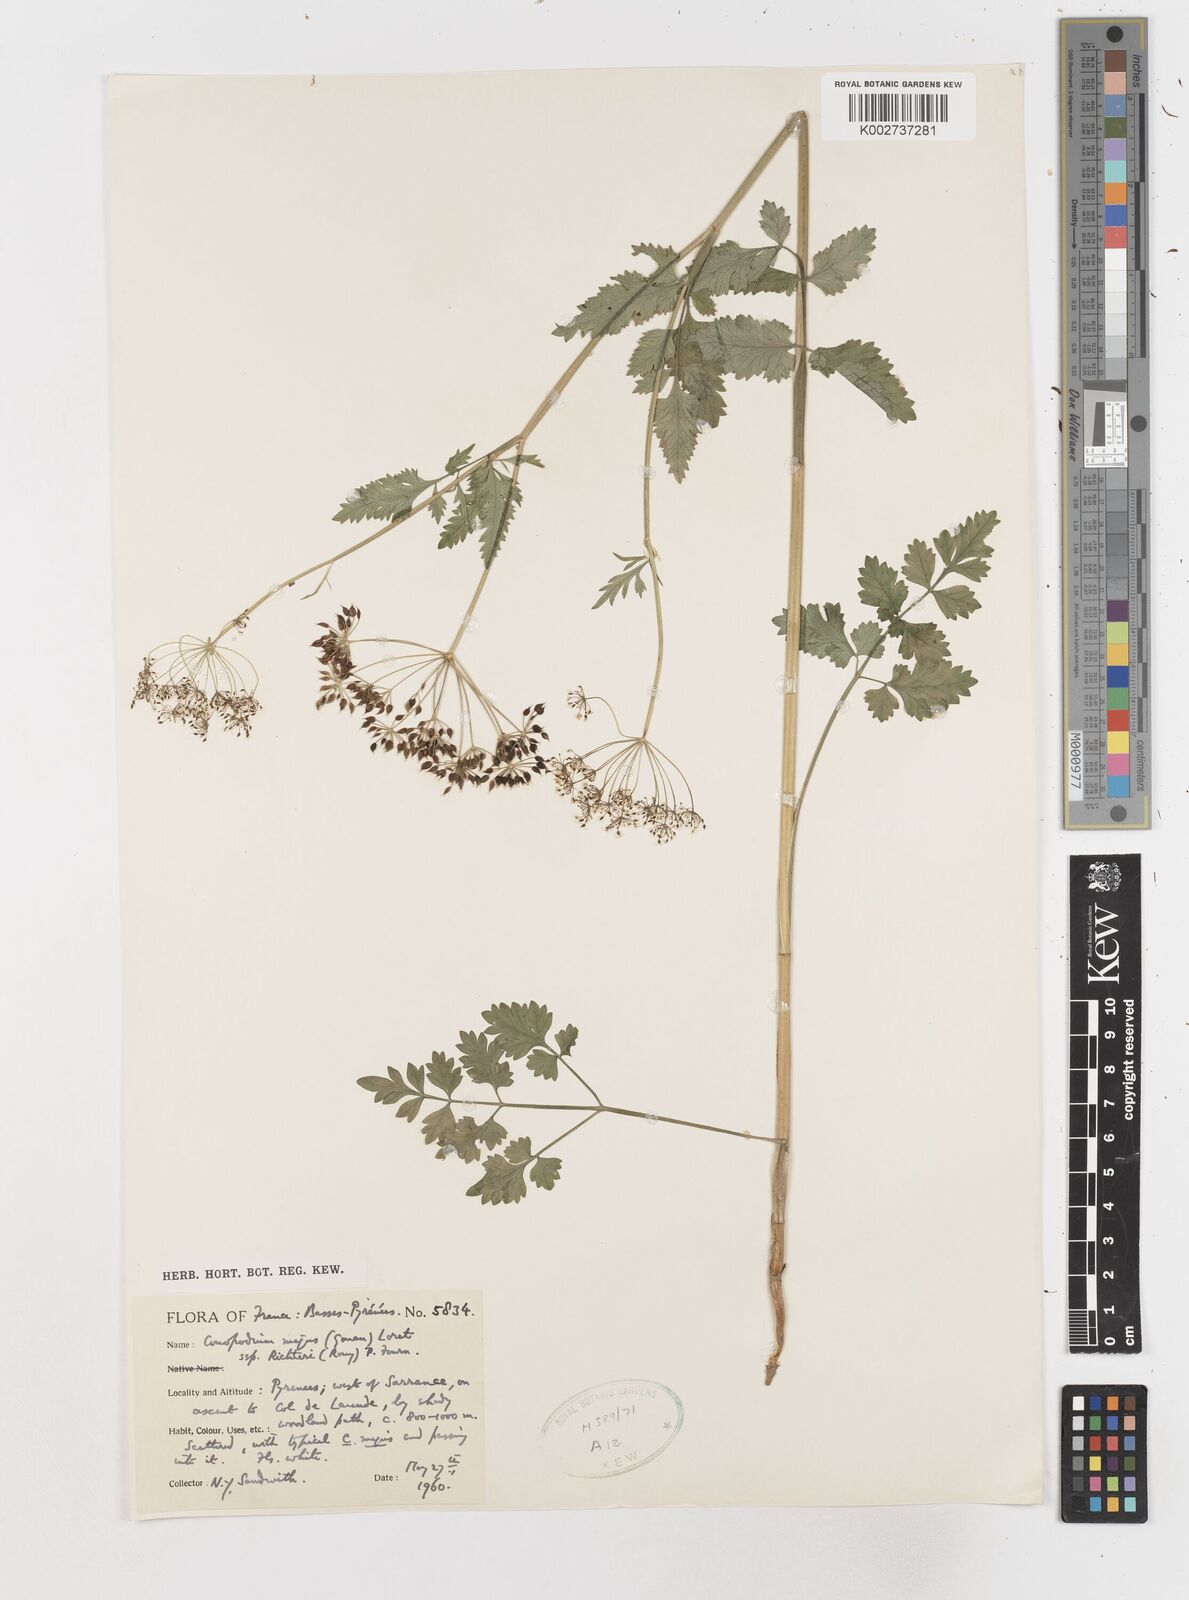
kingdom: Plantae
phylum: Tracheophyta
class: Magnoliopsida
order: Apiales
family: Apiaceae
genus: Conopodium
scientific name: Conopodium pyrenaeum
